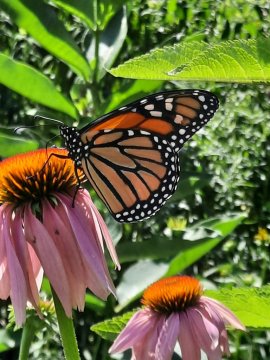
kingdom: Animalia
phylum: Arthropoda
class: Insecta
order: Lepidoptera
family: Nymphalidae
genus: Danaus
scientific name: Danaus plexippus
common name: Monarch
